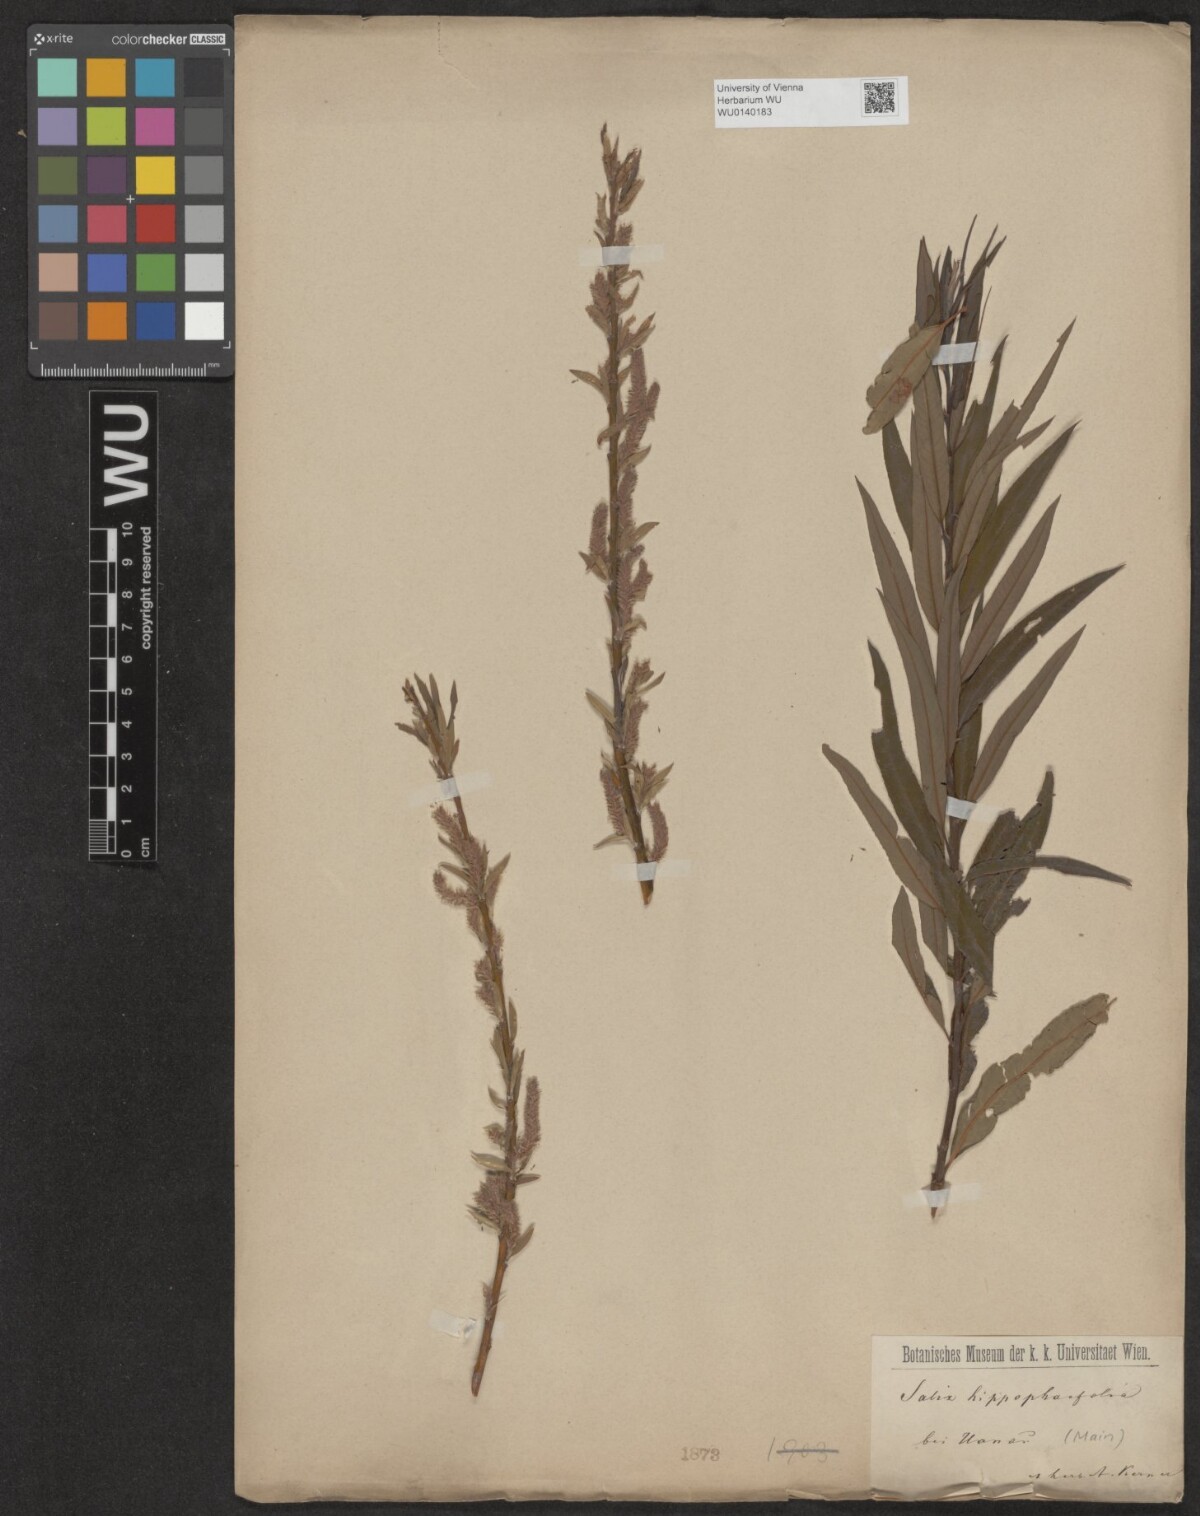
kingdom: Plantae
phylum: Tracheophyta
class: Magnoliopsida
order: Malpighiales
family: Salicaceae
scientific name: Salicaceae
